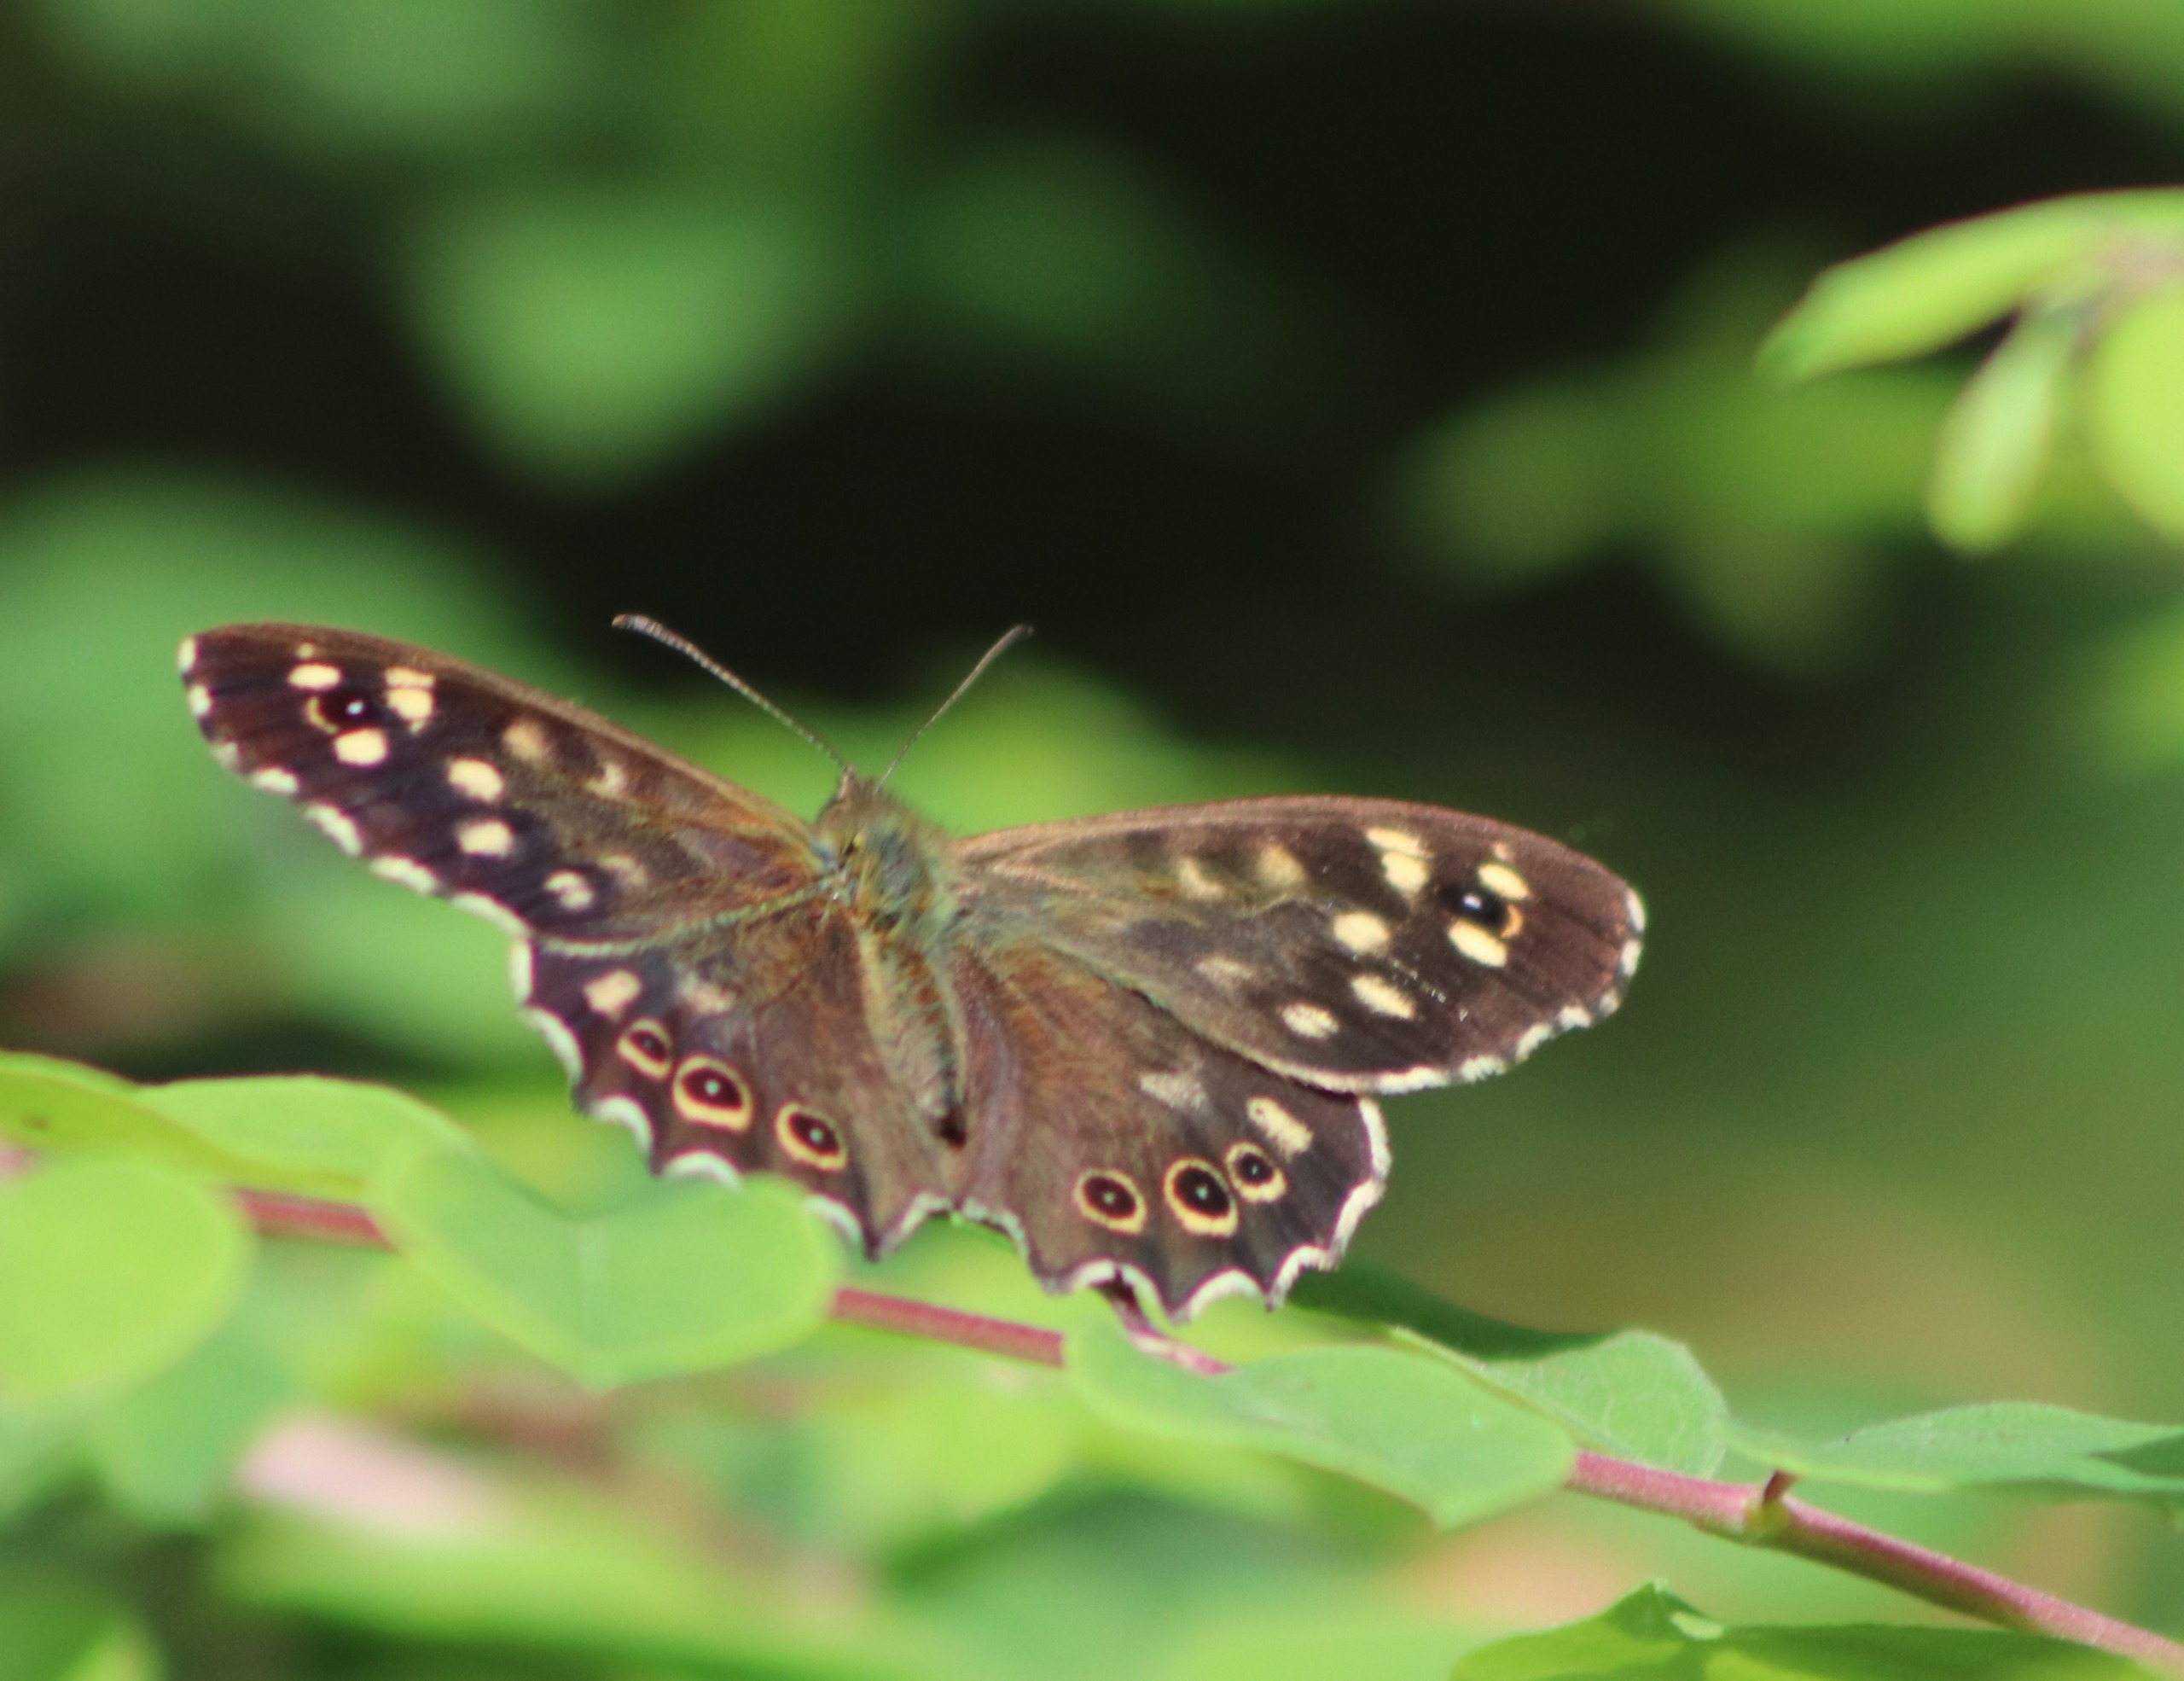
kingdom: Animalia
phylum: Arthropoda
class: Insecta
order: Lepidoptera
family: Nymphalidae
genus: Pararge
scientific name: Pararge aegeria
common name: Skovrandøje
